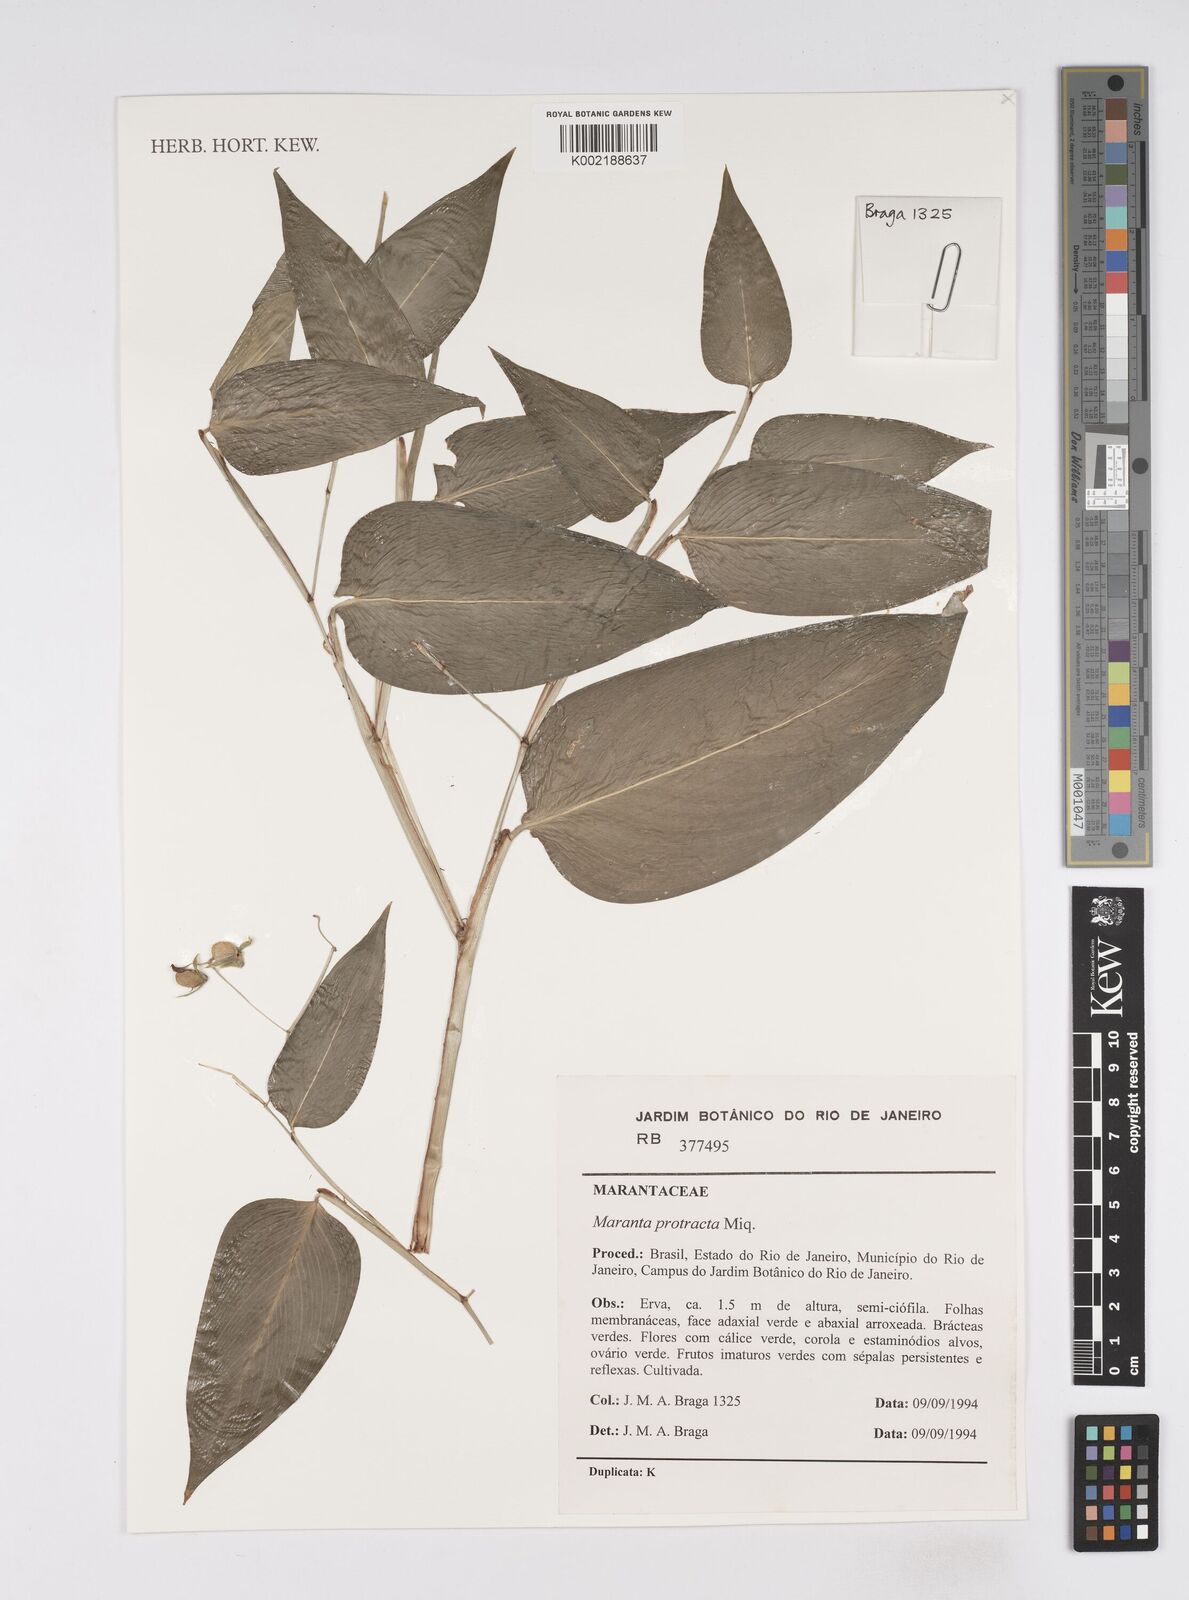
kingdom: Plantae
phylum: Tracheophyta
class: Liliopsida
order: Zingiberales
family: Marantaceae
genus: Maranta
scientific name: Maranta protracta
